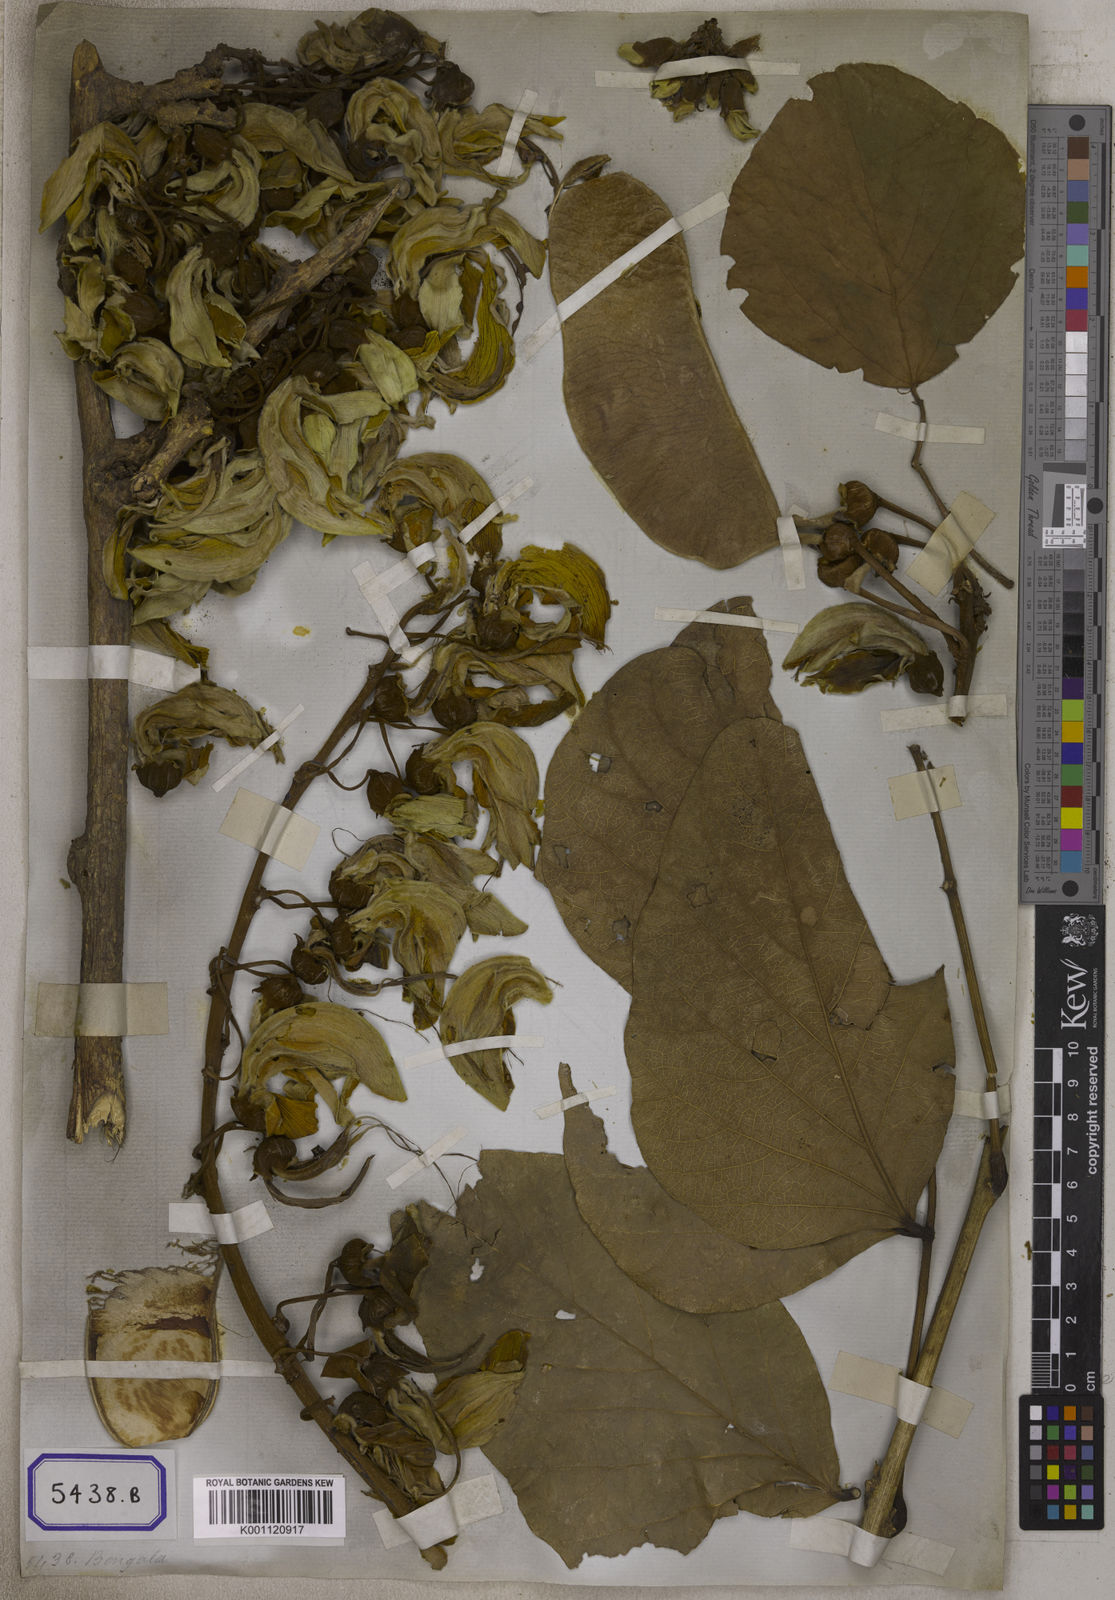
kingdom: Plantae
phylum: Tracheophyta
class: Magnoliopsida
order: Fabales
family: Fabaceae
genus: Butea
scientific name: Butea
